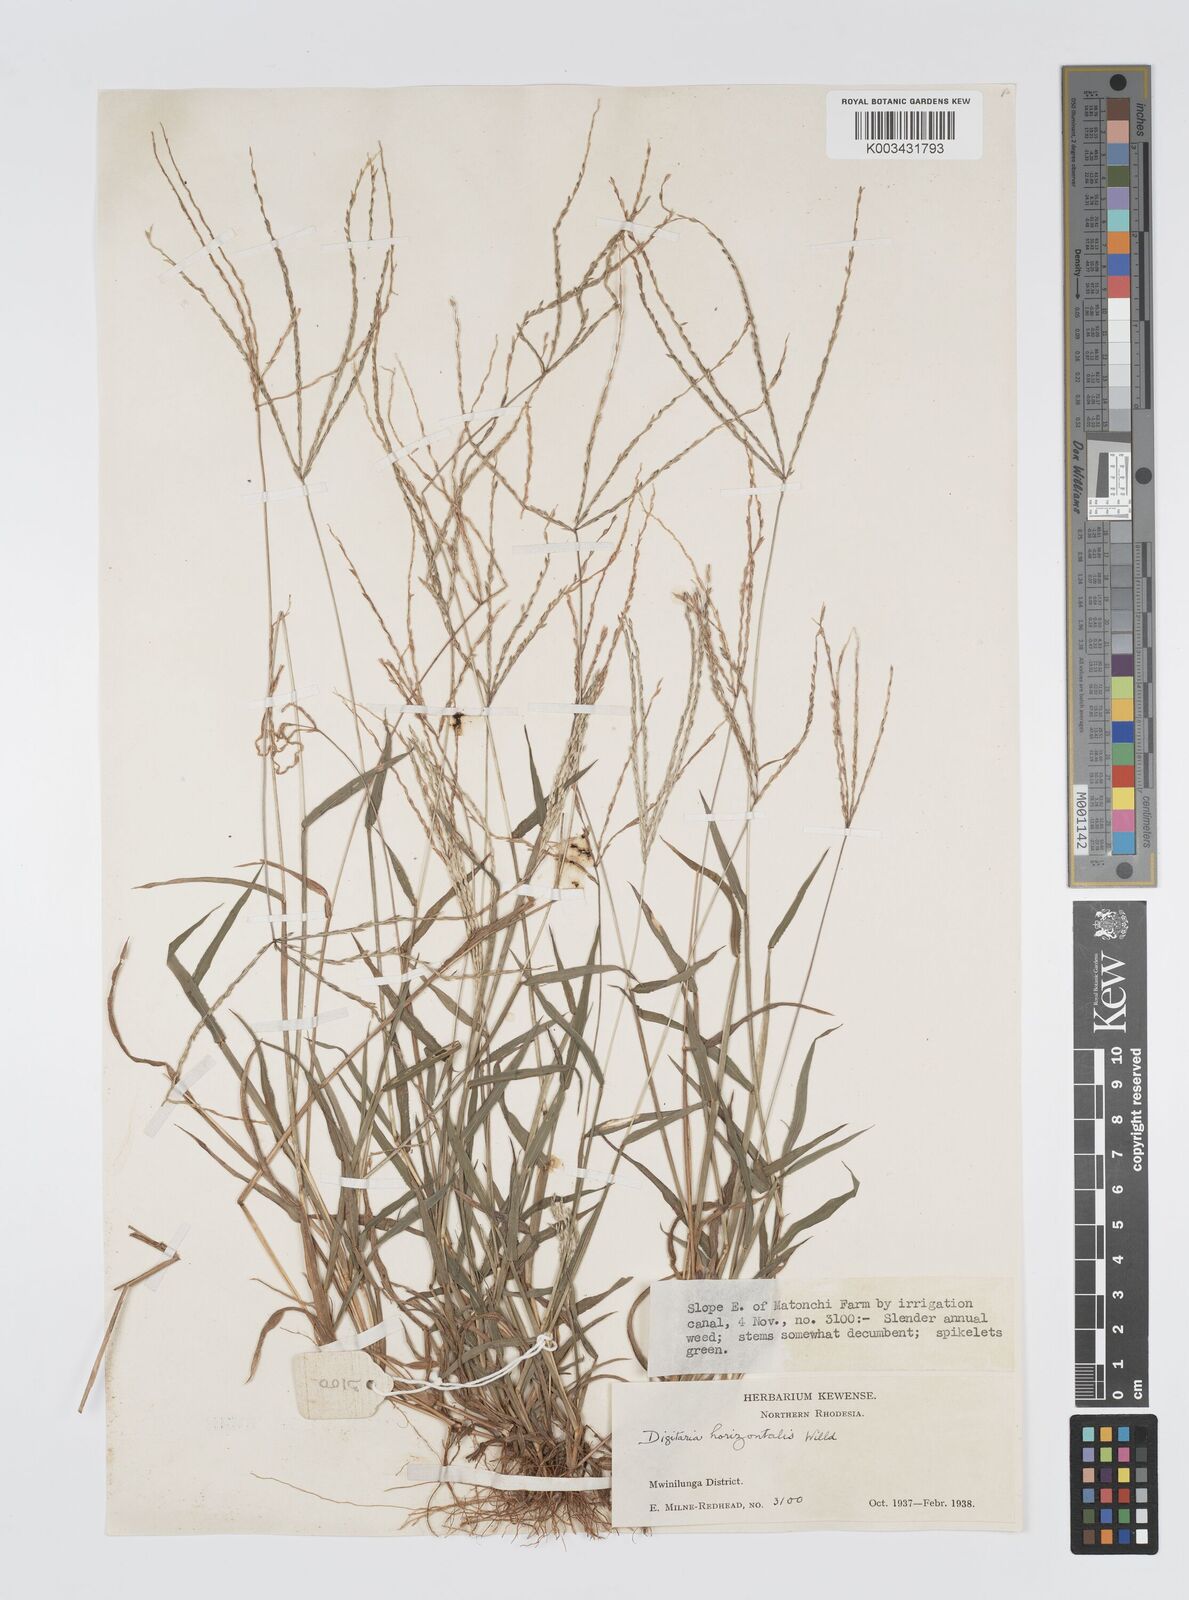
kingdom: Plantae
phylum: Tracheophyta
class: Liliopsida
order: Poales
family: Poaceae
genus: Digitaria
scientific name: Digitaria nuda
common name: Naked crabgrass
